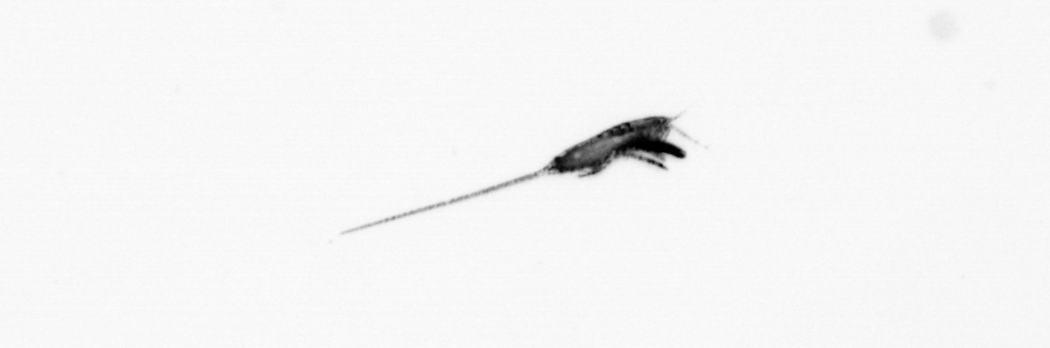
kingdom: Animalia
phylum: Arthropoda
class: Copepoda
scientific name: Copepoda
